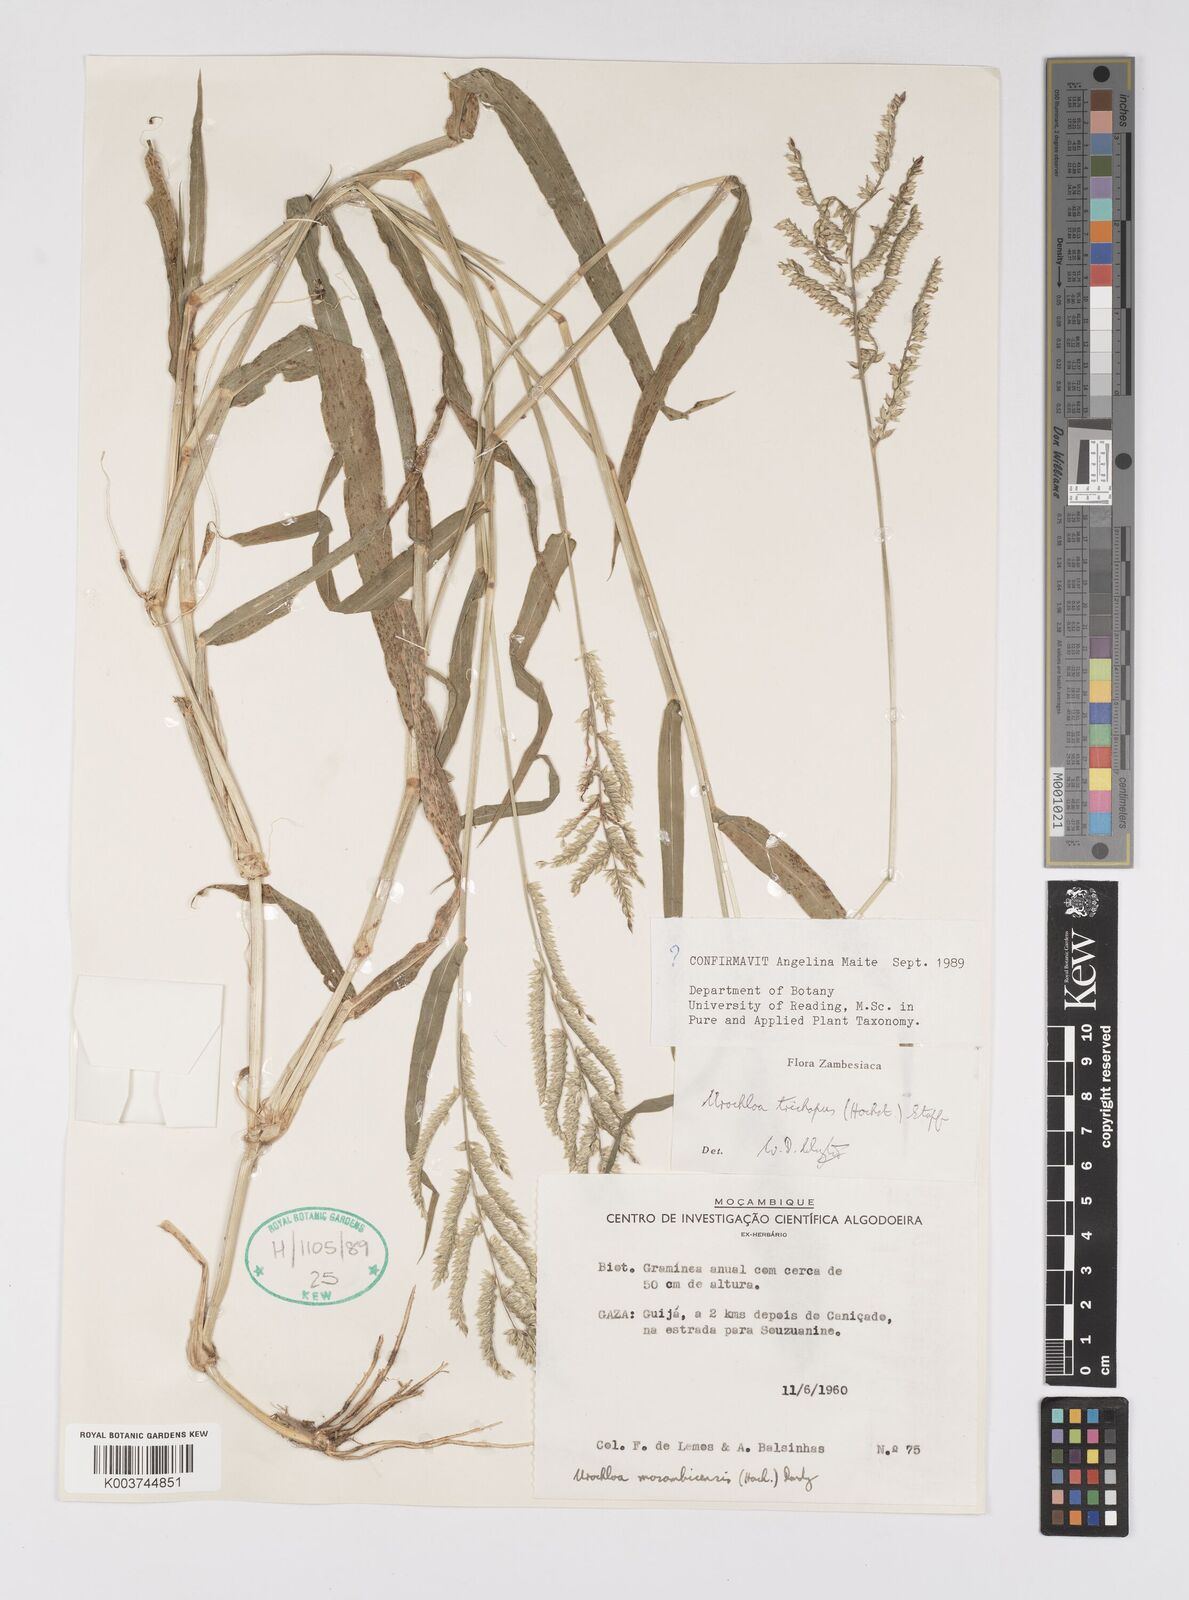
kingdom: Plantae
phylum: Tracheophyta
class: Liliopsida
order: Poales
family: Poaceae
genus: Urochloa
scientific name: Urochloa trichopus
